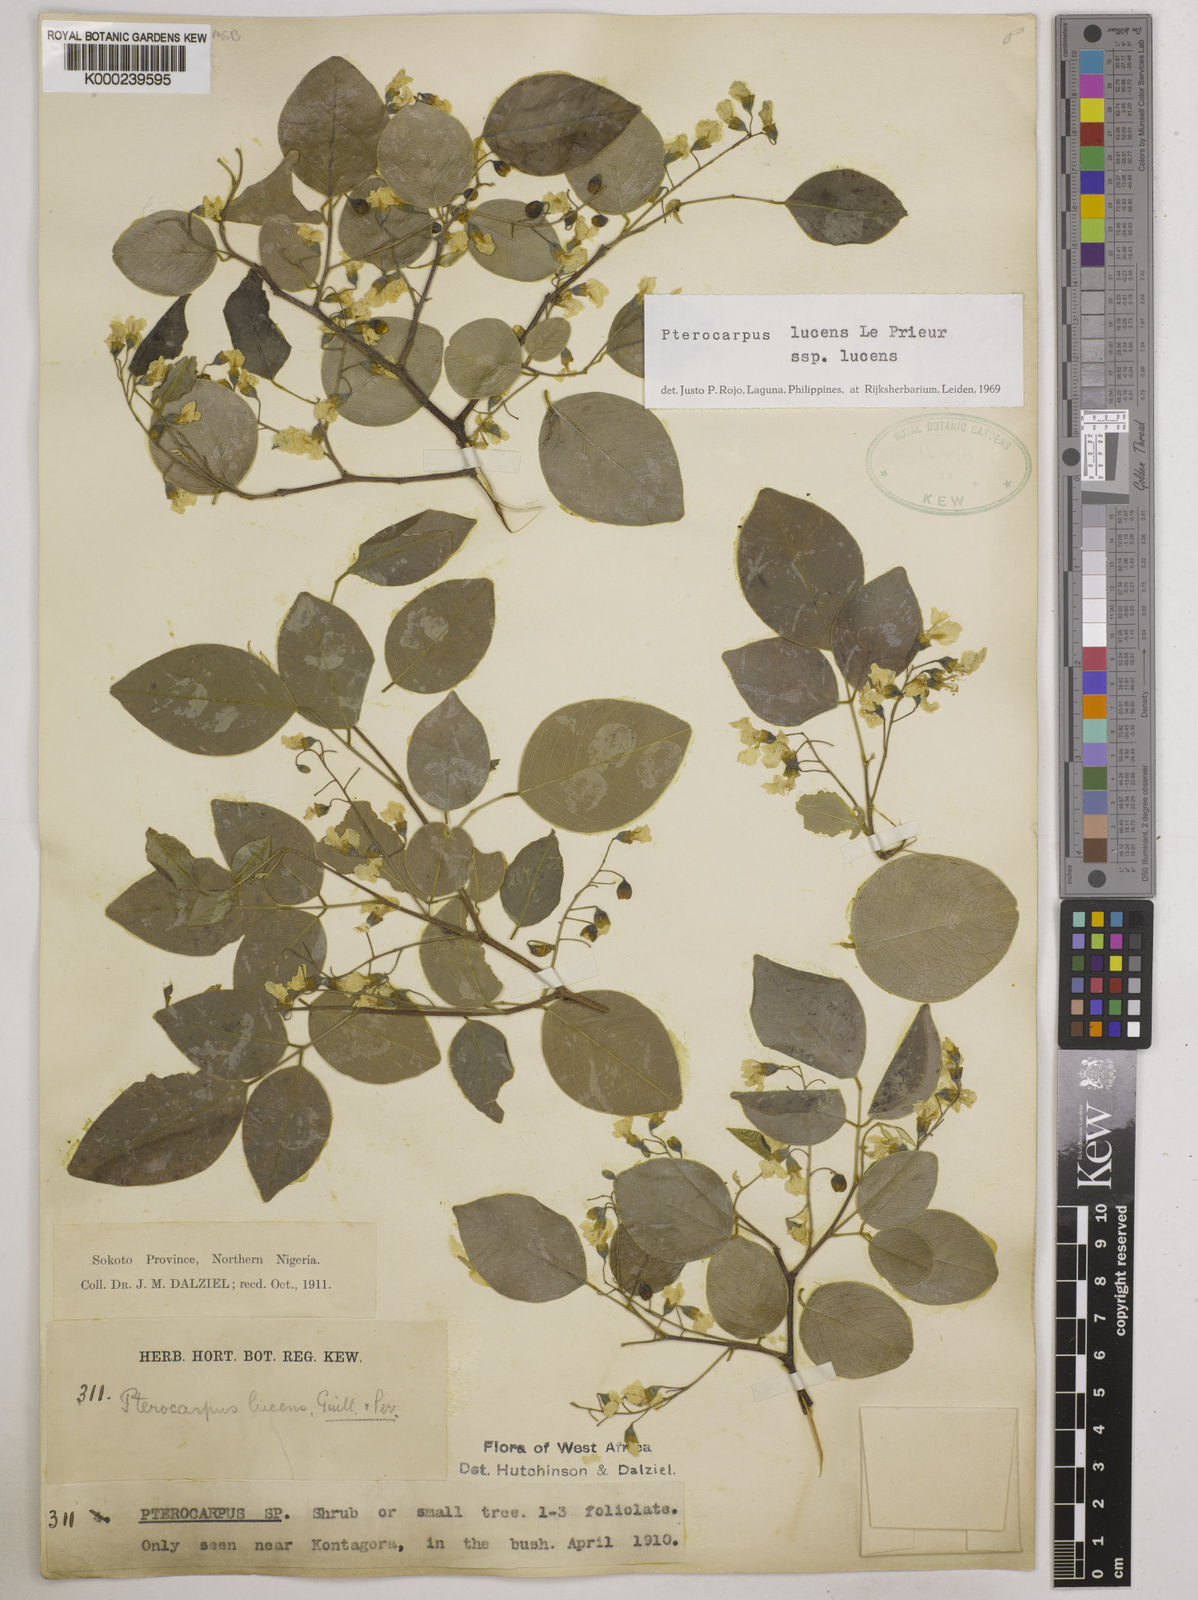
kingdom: Plantae
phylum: Tracheophyta
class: Magnoliopsida
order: Fabales
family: Fabaceae
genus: Pterocarpus
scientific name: Pterocarpus lucens
